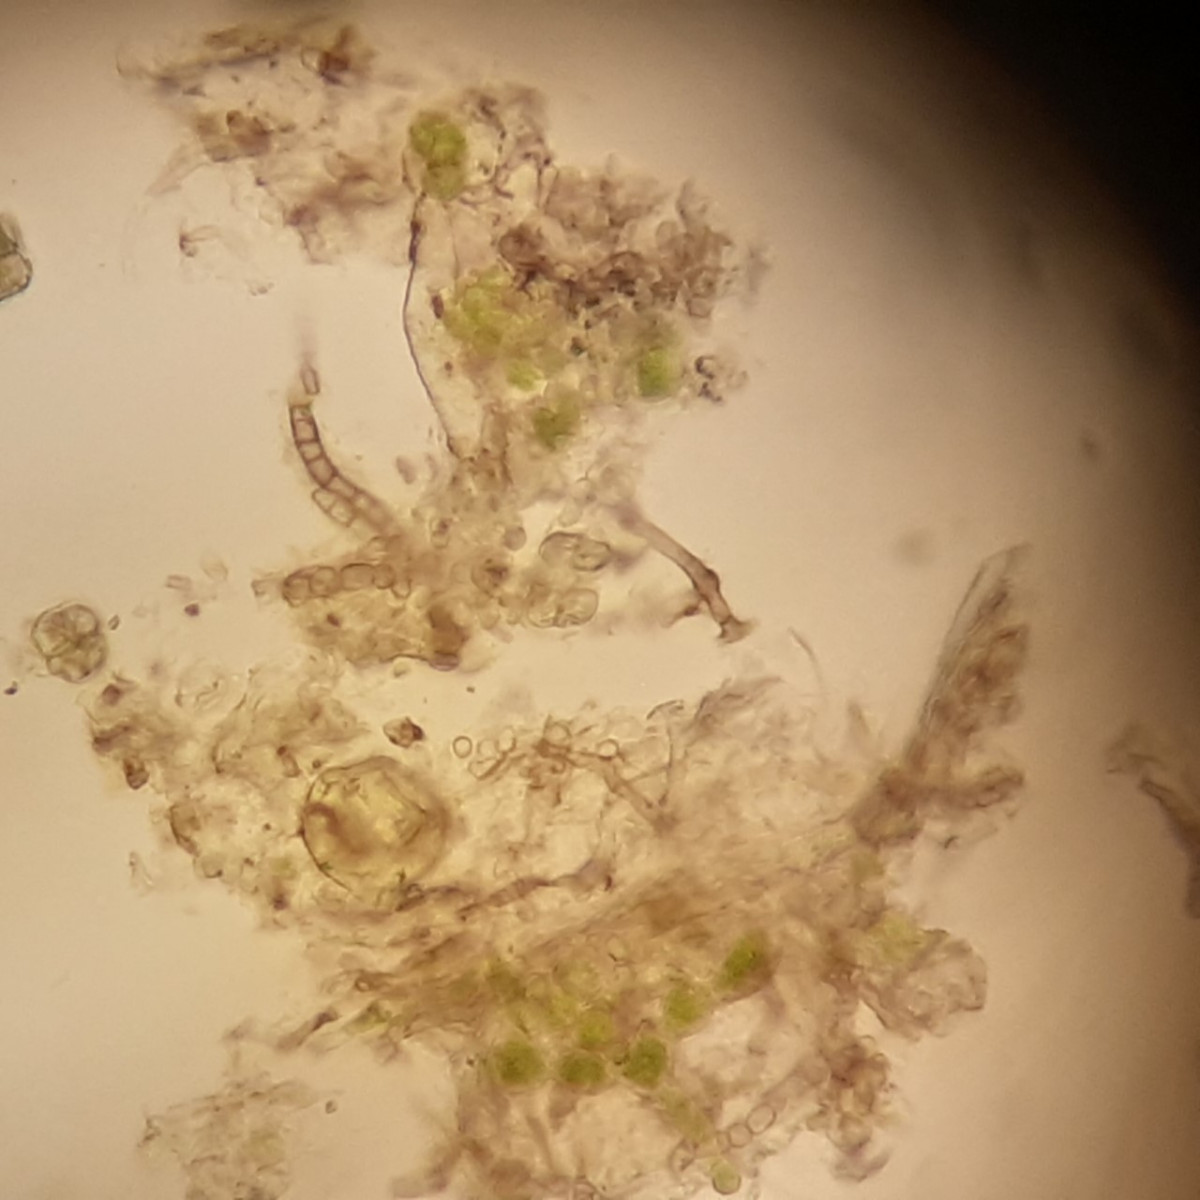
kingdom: Fungi
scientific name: Fungi
